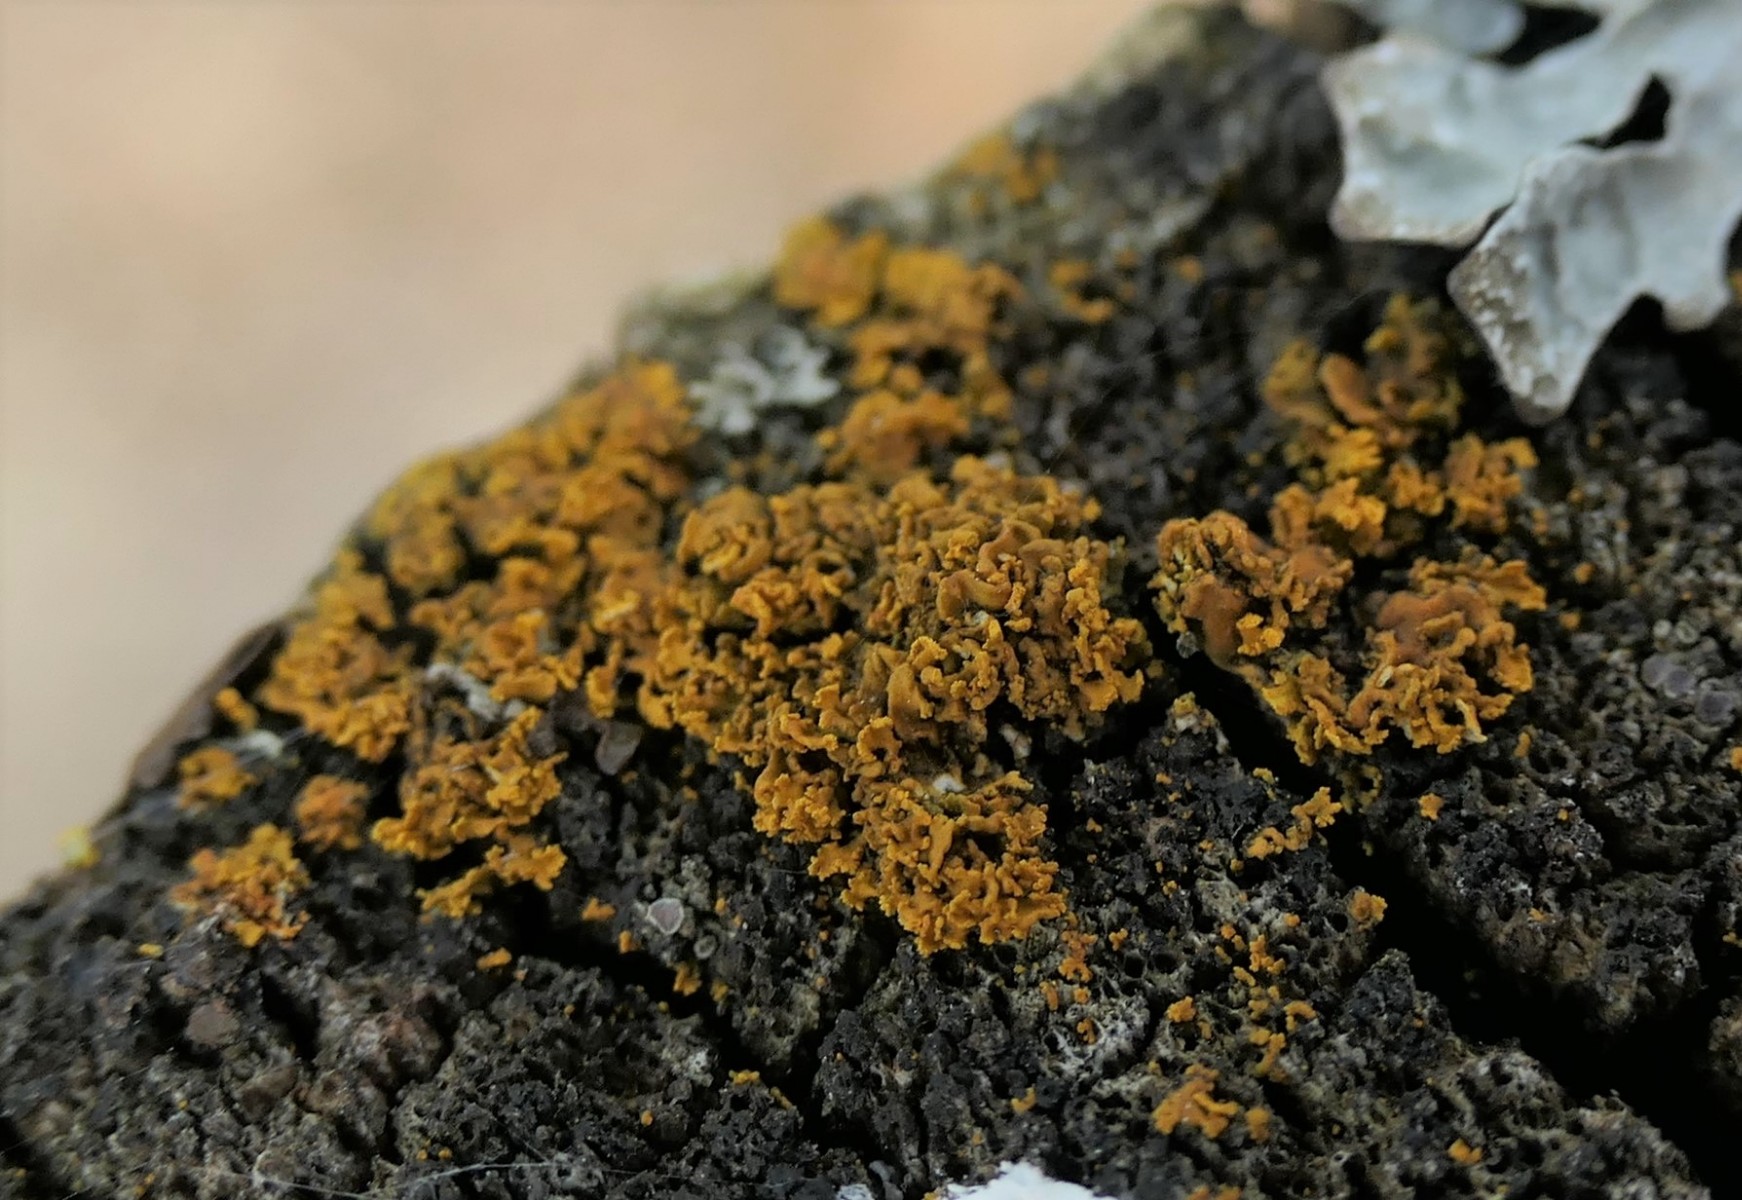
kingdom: Fungi
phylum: Ascomycota
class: Lecanoromycetes
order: Teloschistales
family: Teloschistaceae
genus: Xanthomendoza
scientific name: Xanthomendoza oregana
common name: Poelts væggelav
